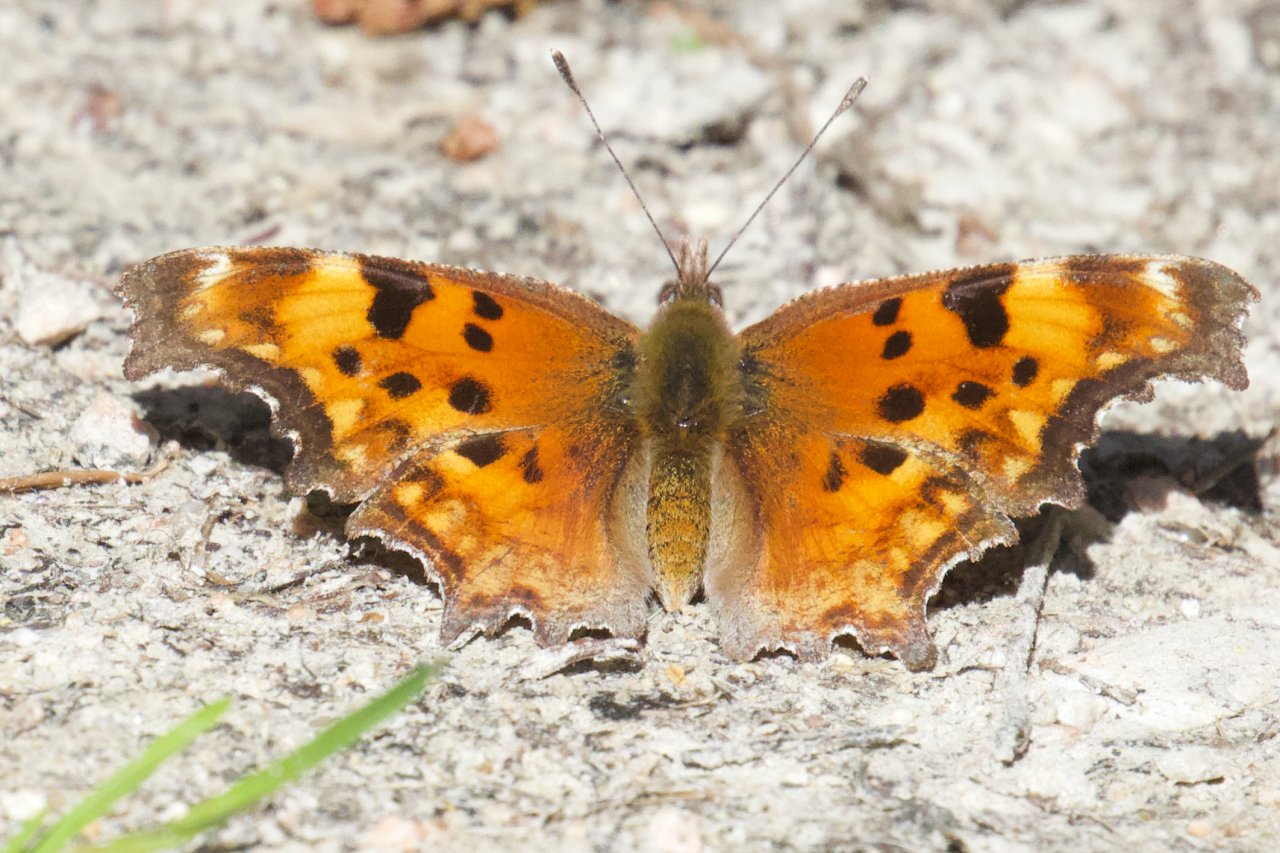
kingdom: Animalia
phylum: Arthropoda
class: Insecta
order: Lepidoptera
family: Nymphalidae
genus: Polygonia
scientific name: Polygonia gracilis
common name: Hoary Comma
